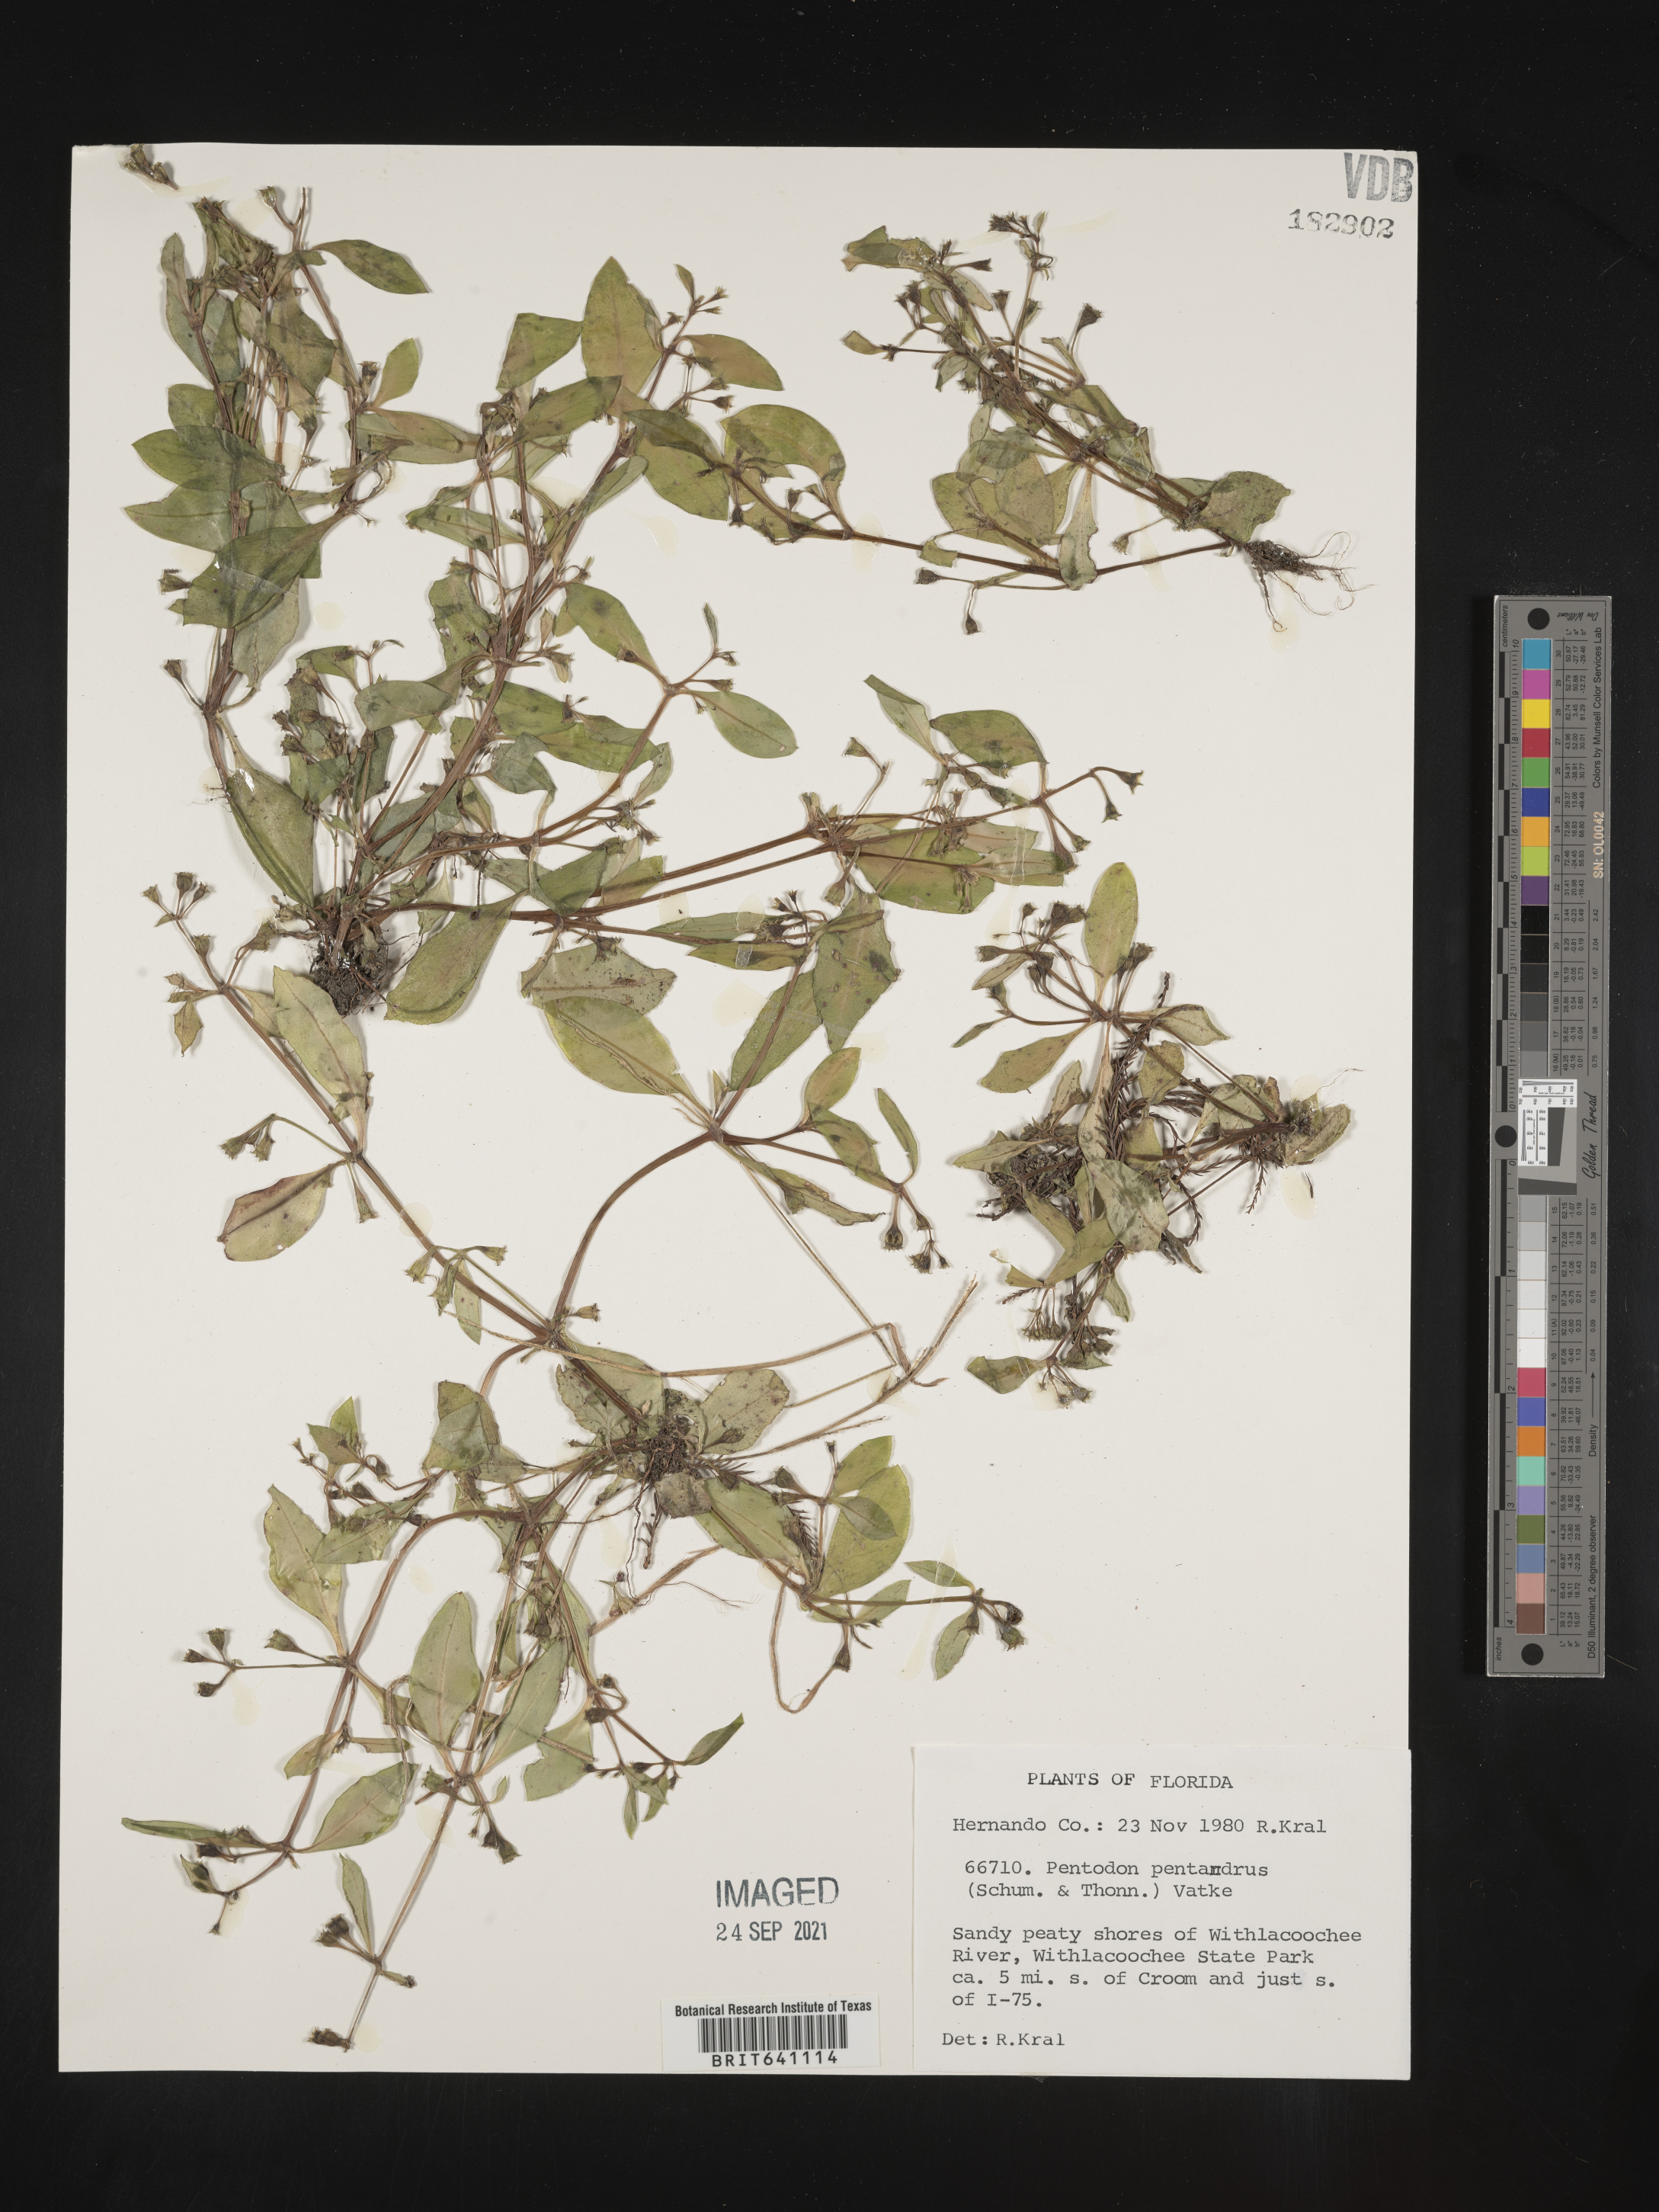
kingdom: Plantae
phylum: Tracheophyta
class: Magnoliopsida
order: Gentianales
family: Rubiaceae
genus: Pentodon
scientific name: Pentodon pentandrus
